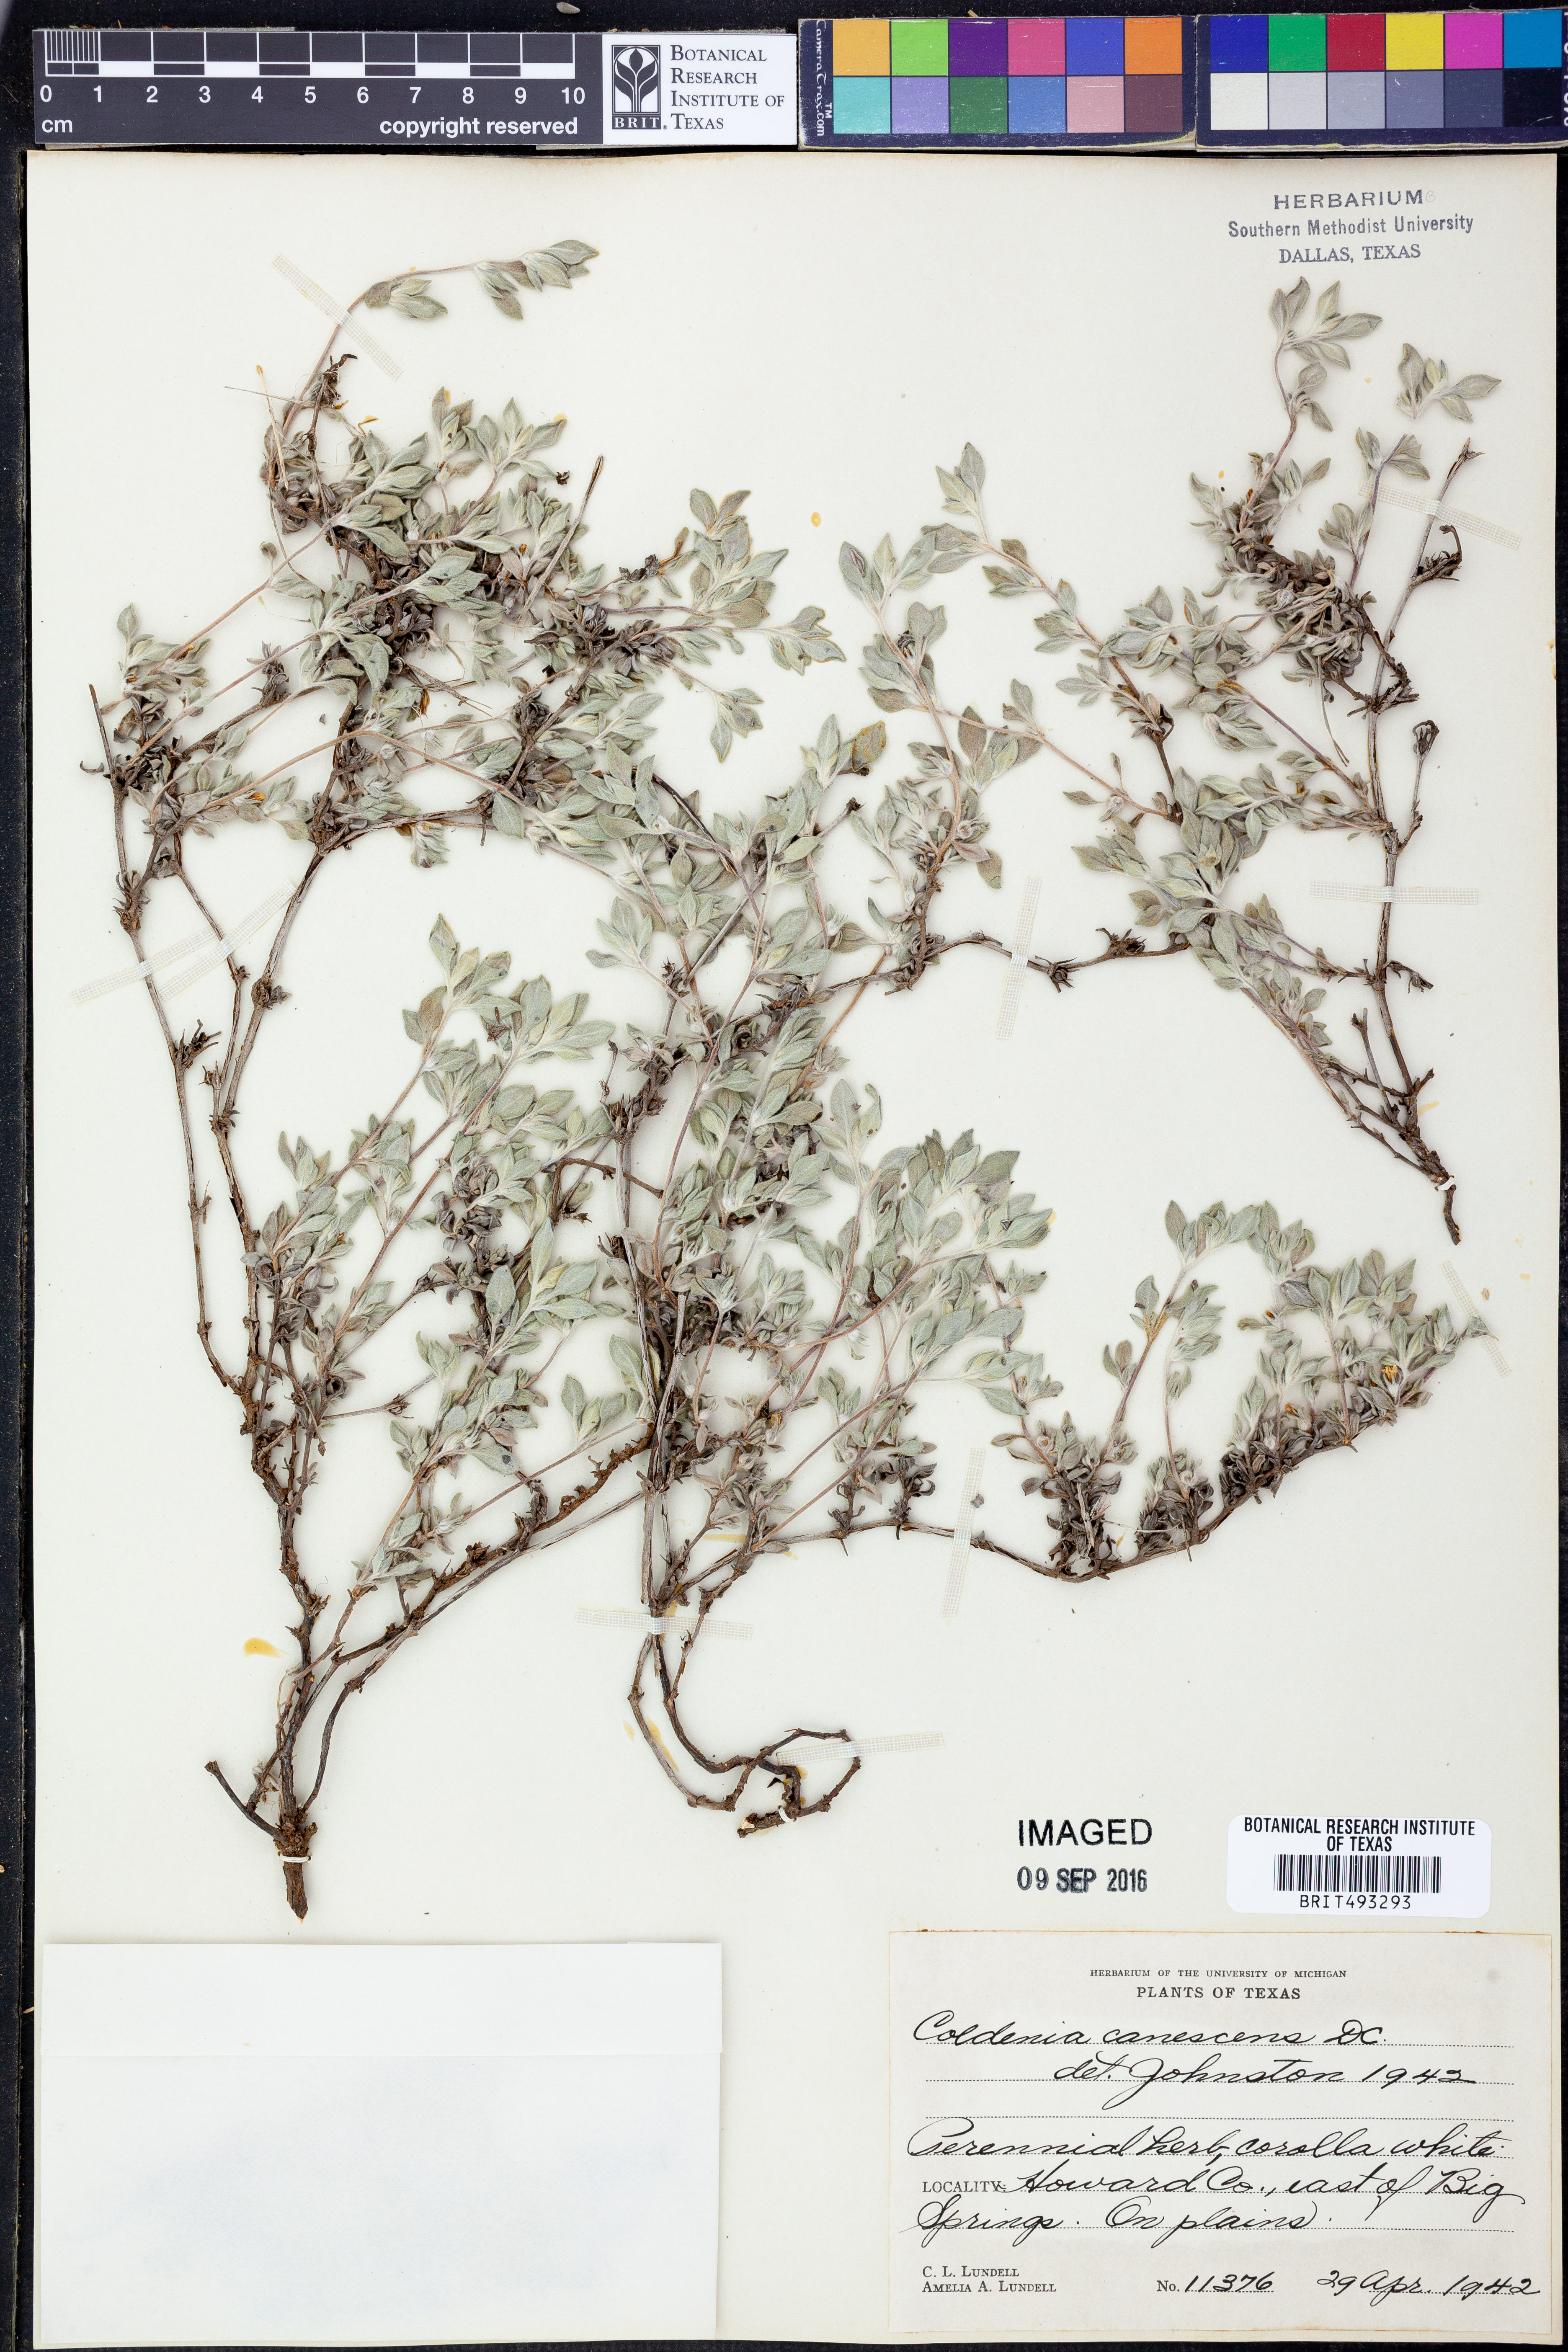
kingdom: Plantae
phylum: Tracheophyta
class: Magnoliopsida
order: Boraginales
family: Ehretiaceae
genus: Tiquilia
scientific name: Tiquilia canescens
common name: Hairy tiquilia
